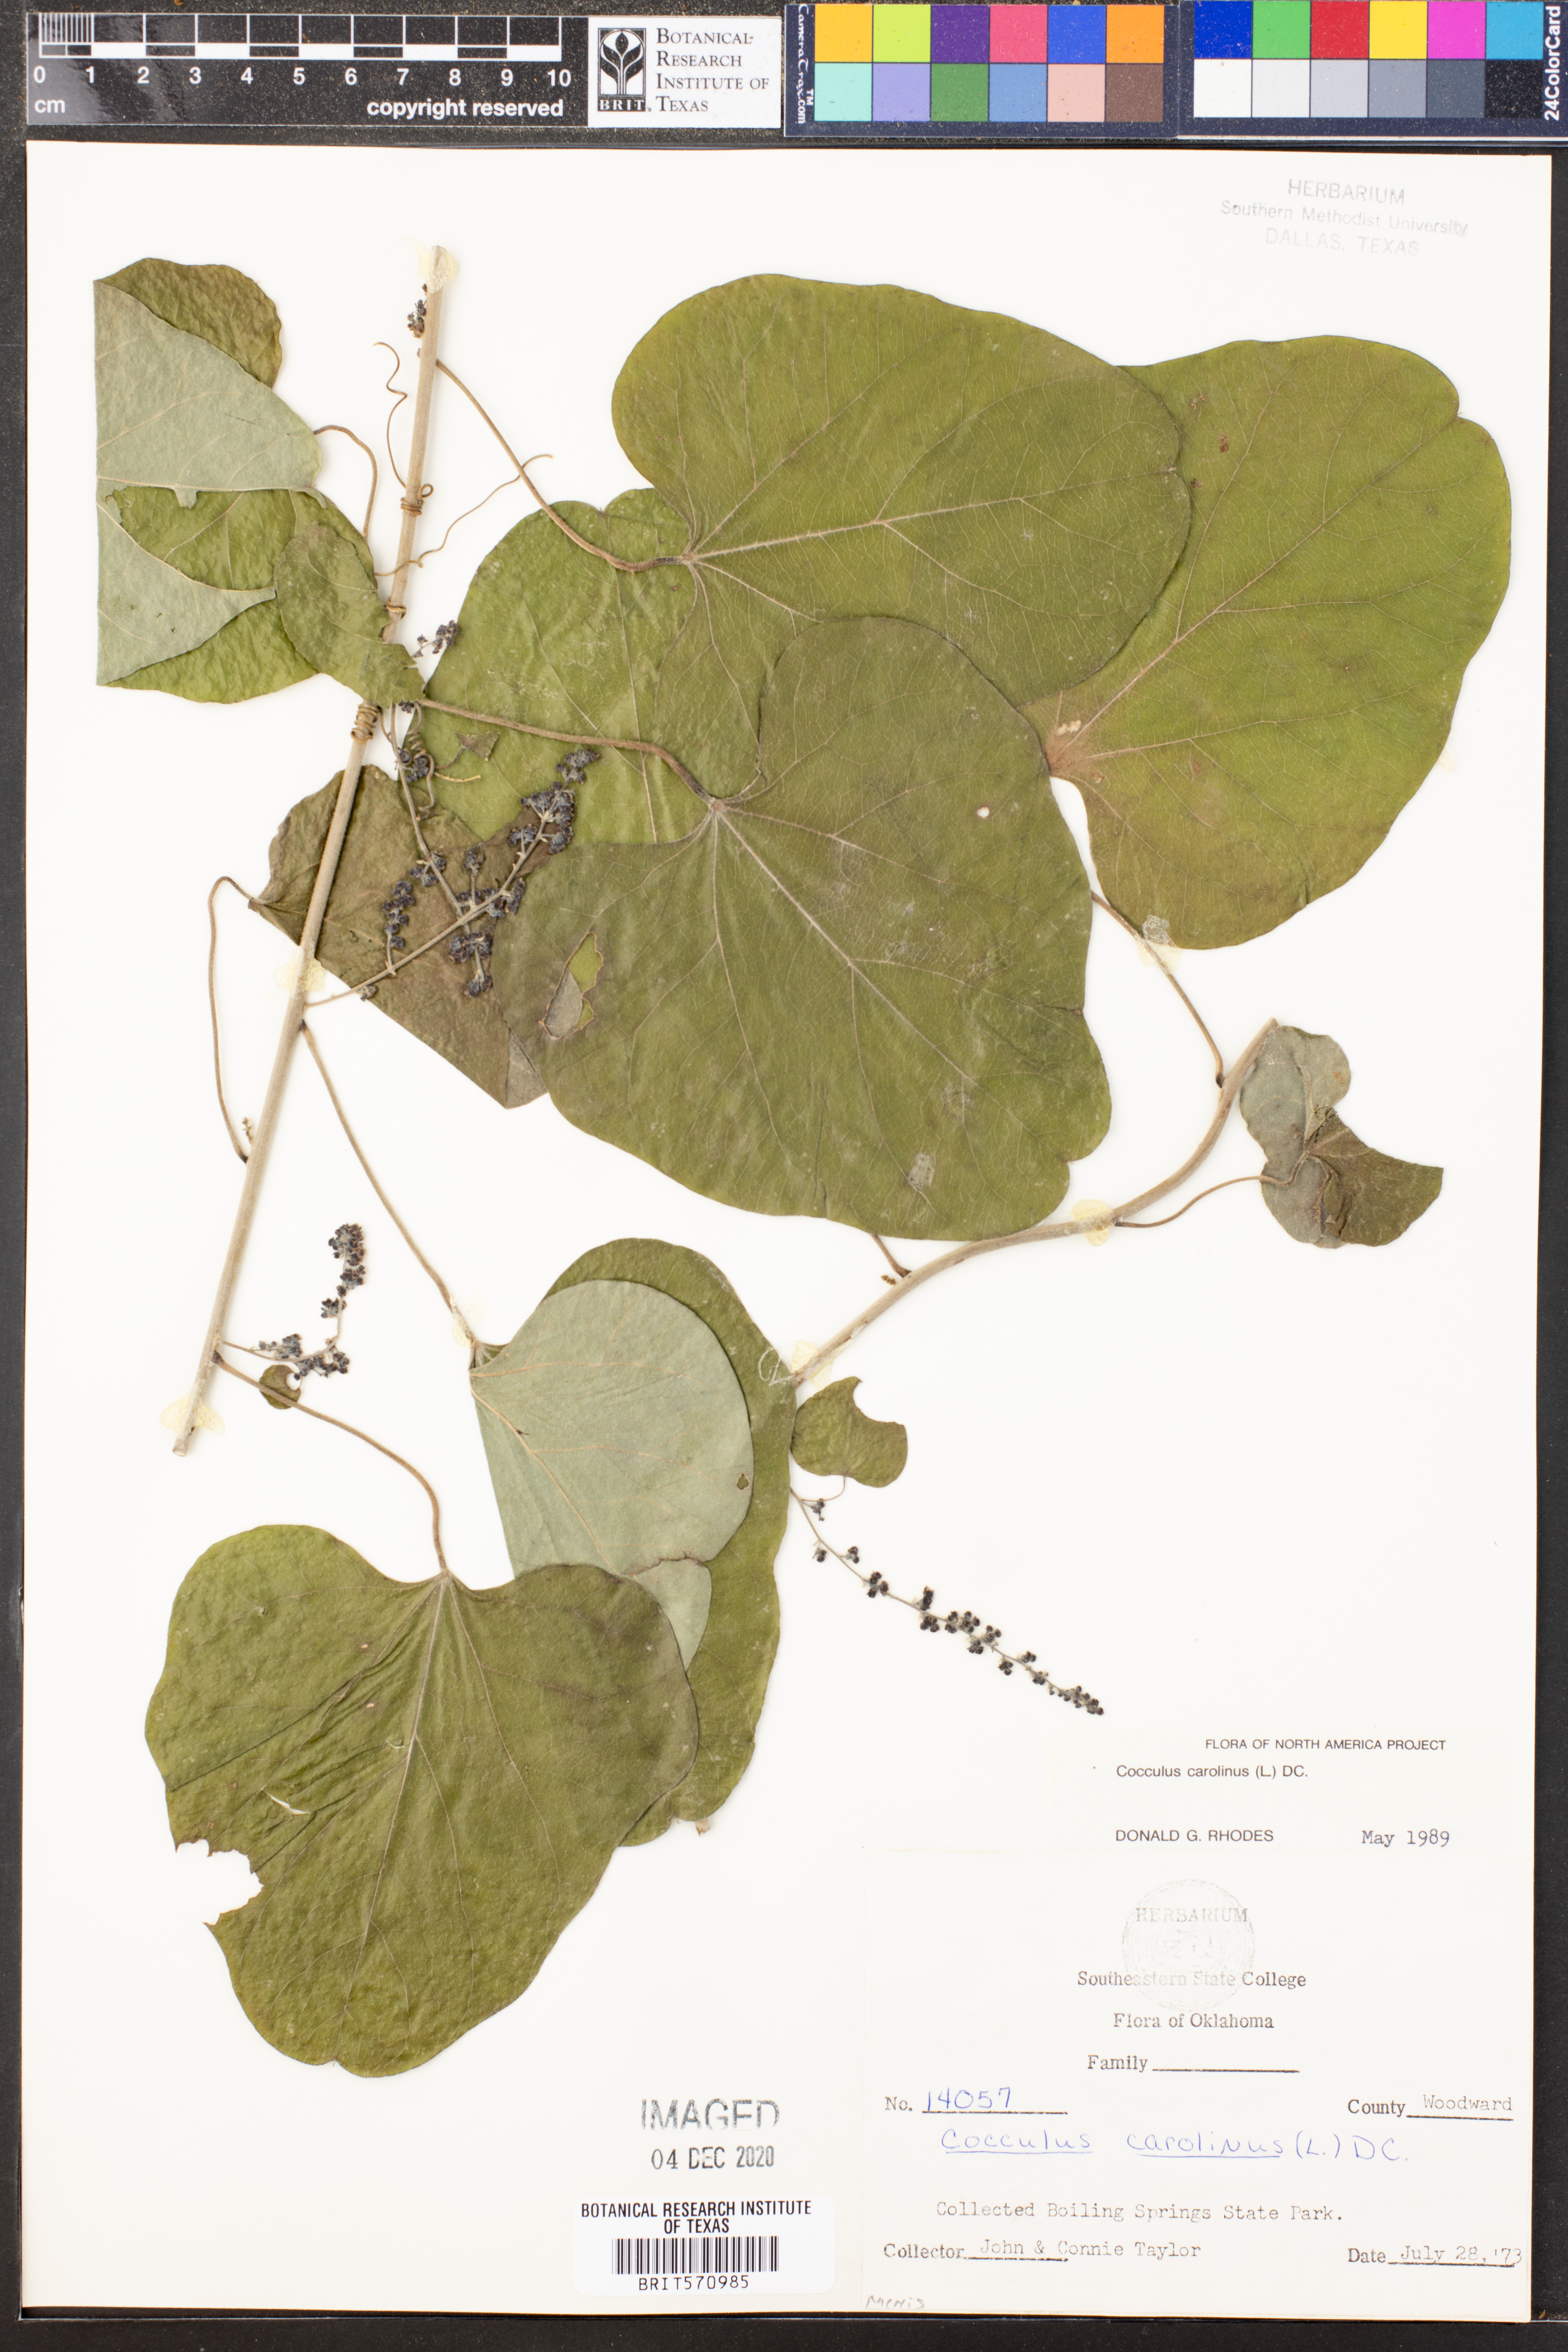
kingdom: Plantae
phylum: Tracheophyta
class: Magnoliopsida
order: Ranunculales
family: Menispermaceae
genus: Cocculus
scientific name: Cocculus carolinus
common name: Carolina moonseed
